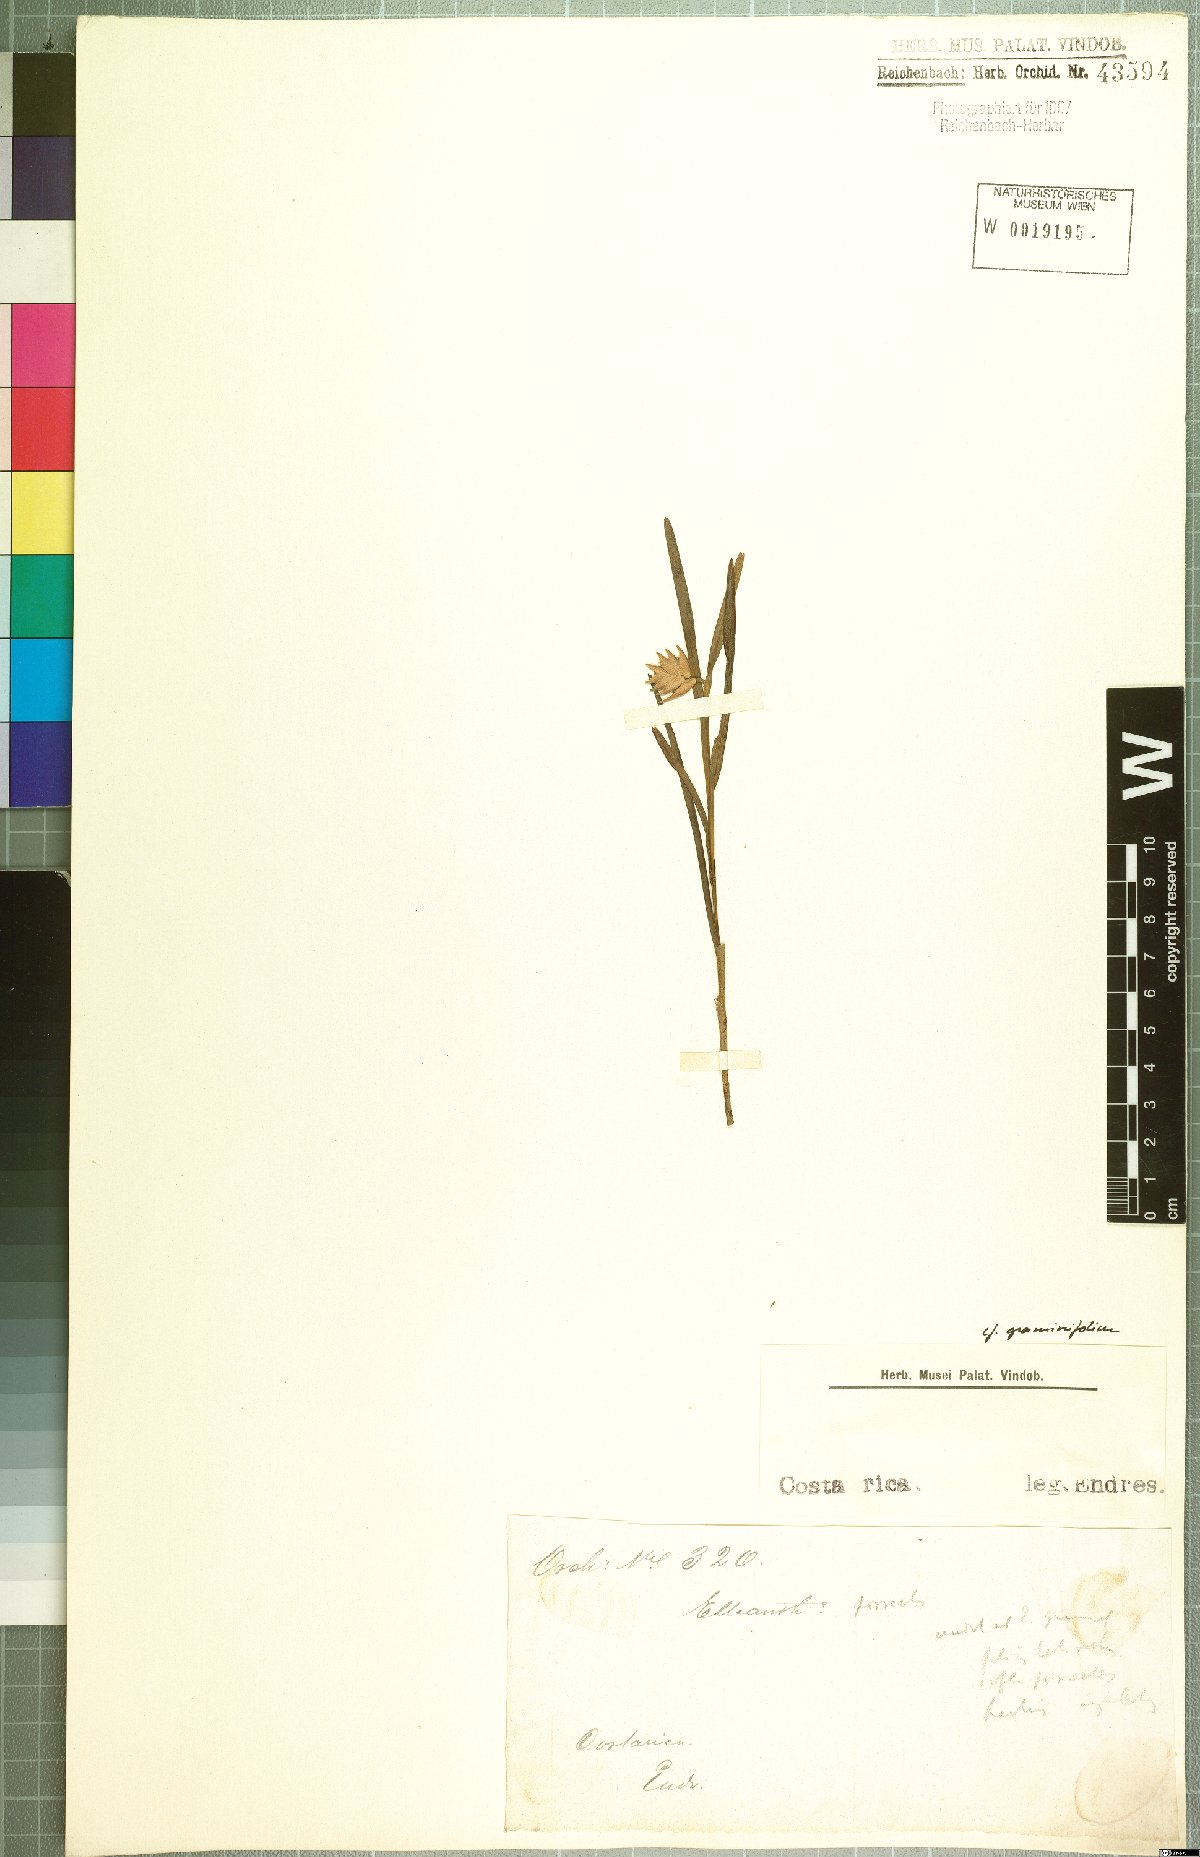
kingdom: Plantae
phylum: Tracheophyta
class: Liliopsida
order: Asparagales
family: Orchidaceae
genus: Elleanthus
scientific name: Elleanthus graminifolius
